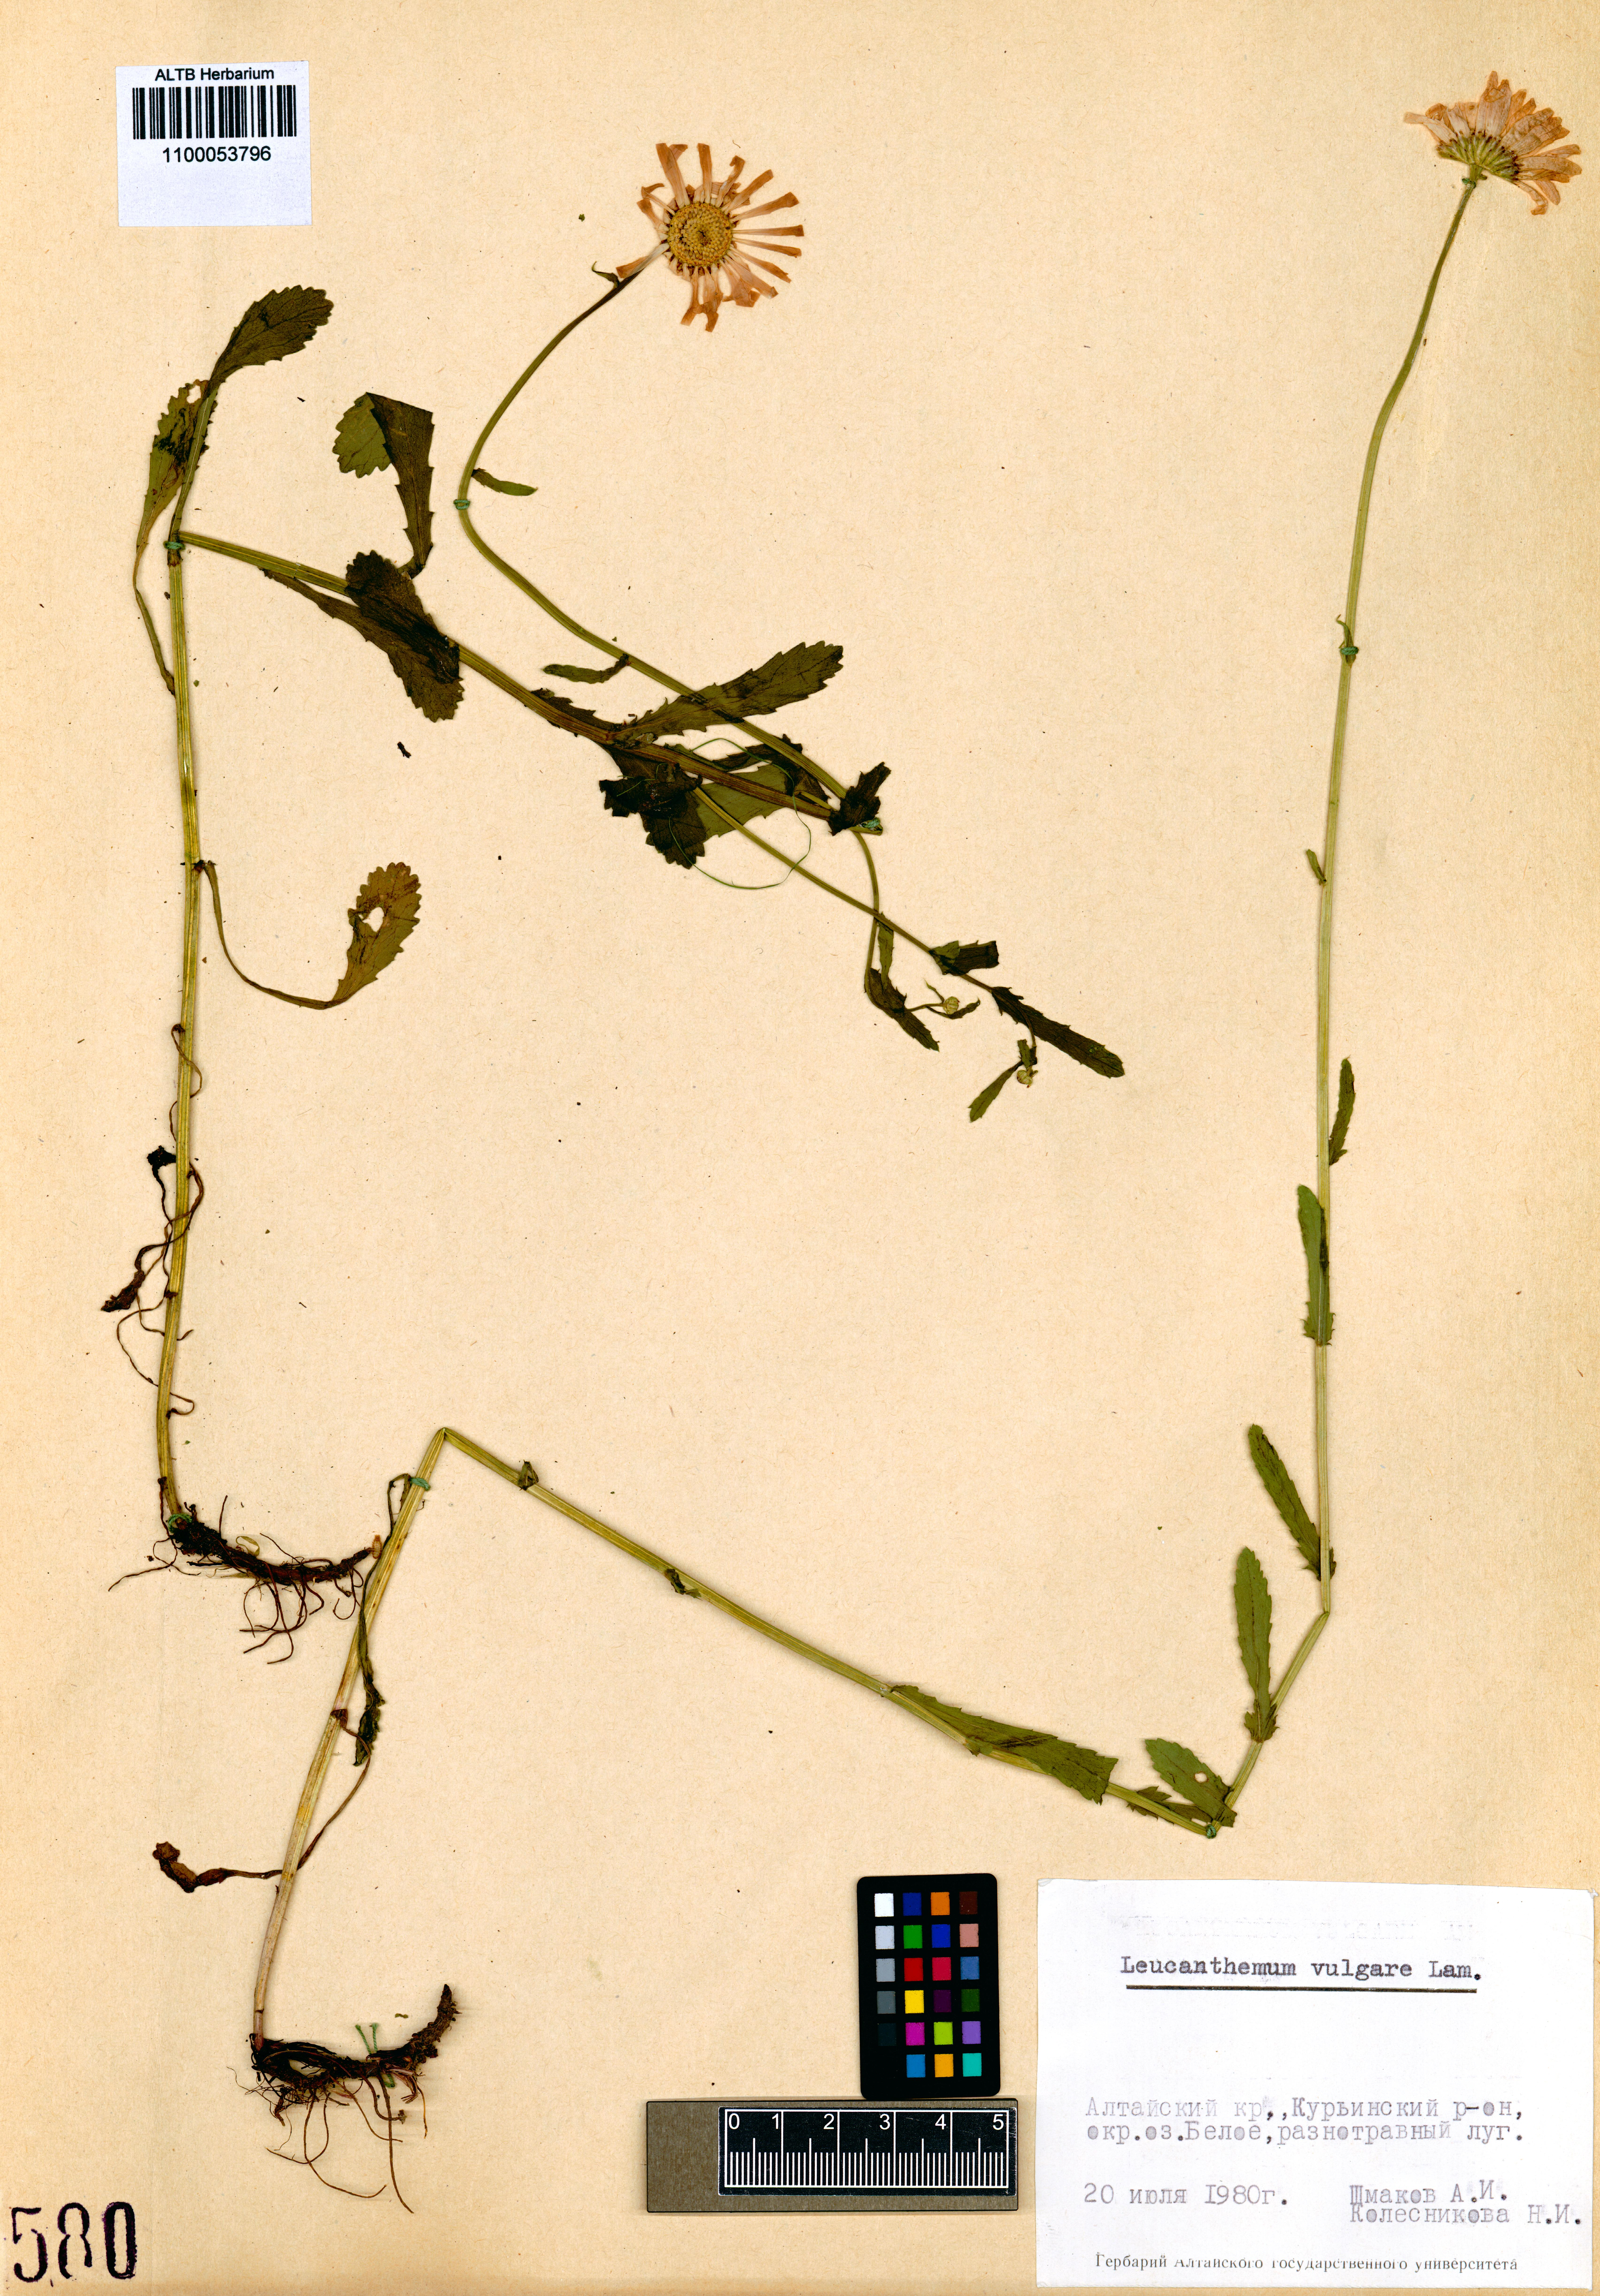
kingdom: Plantae
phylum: Tracheophyta
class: Magnoliopsida
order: Asterales
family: Asteraceae
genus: Leucanthemum
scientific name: Leucanthemum vulgare
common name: Oxeye daisy
